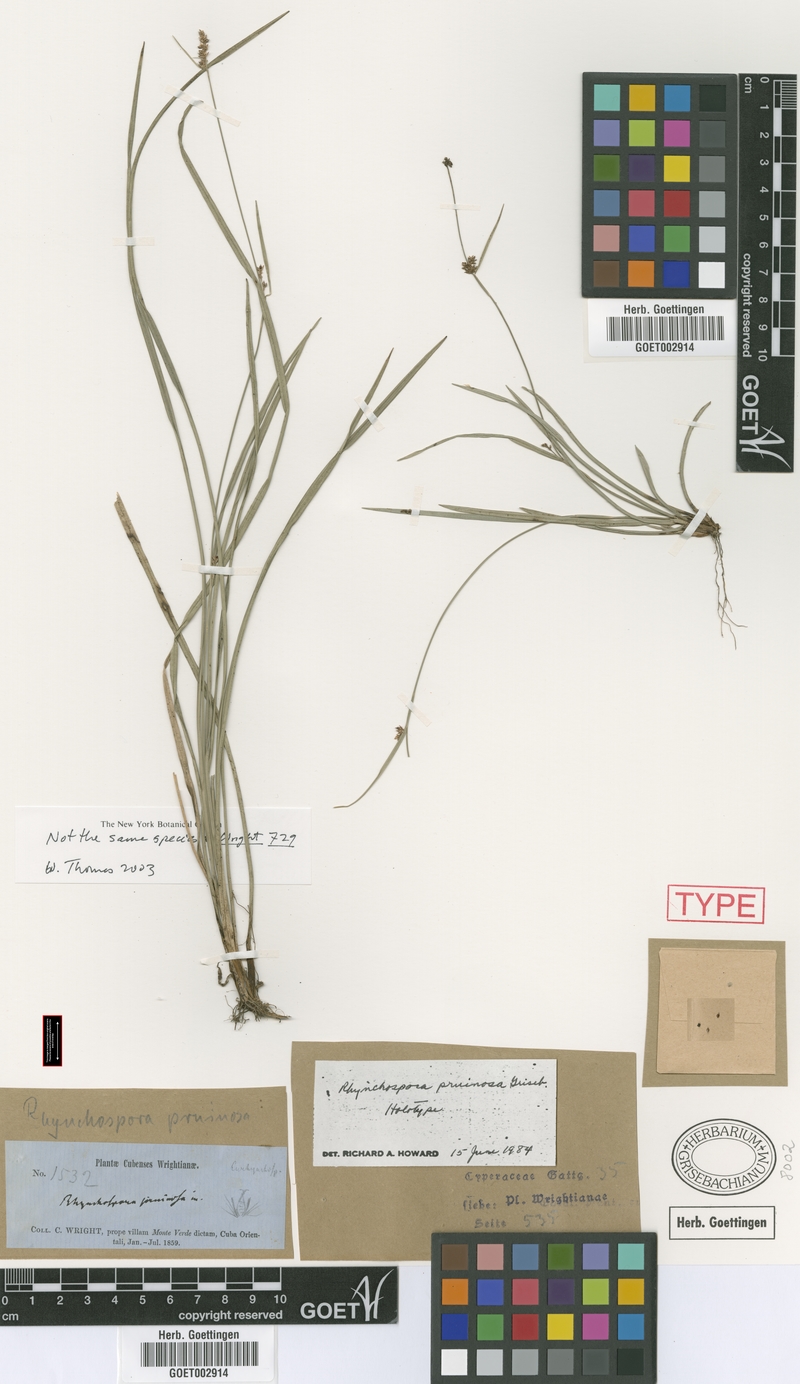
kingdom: Plantae
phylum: Tracheophyta
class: Liliopsida
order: Poales
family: Cyperaceae
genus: Rhynchospora
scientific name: Rhynchospora pruinosa
